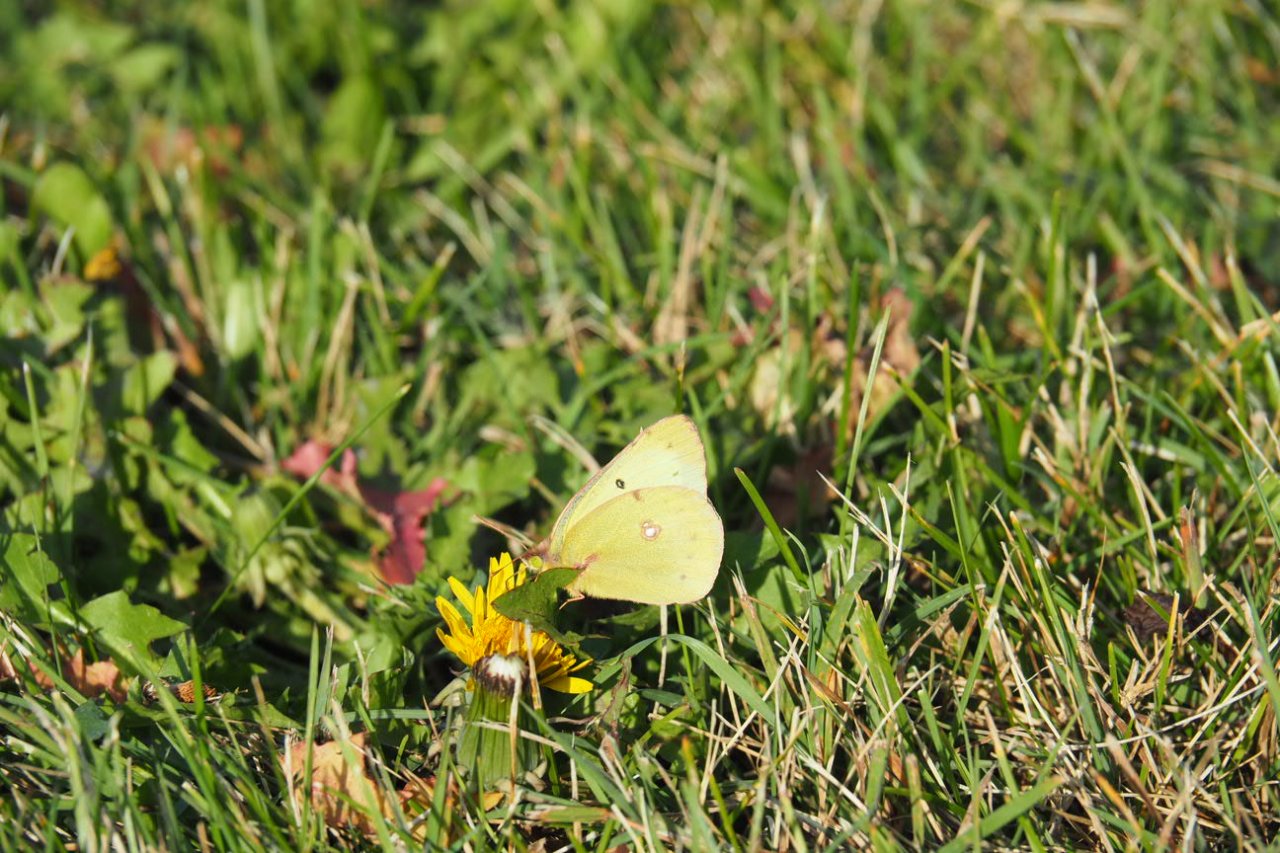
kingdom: Animalia
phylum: Arthropoda
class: Insecta
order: Lepidoptera
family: Pieridae
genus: Colias
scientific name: Colias eurytheme
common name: Orange Sulphur
